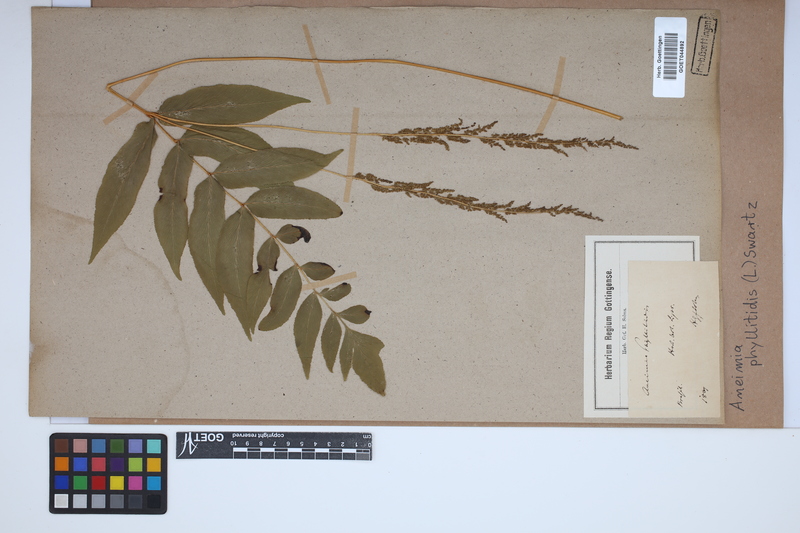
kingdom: Plantae
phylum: Tracheophyta
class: Polypodiopsida
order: Schizaeales
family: Anemiaceae
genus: Anemia
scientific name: Anemia phyllitidis
